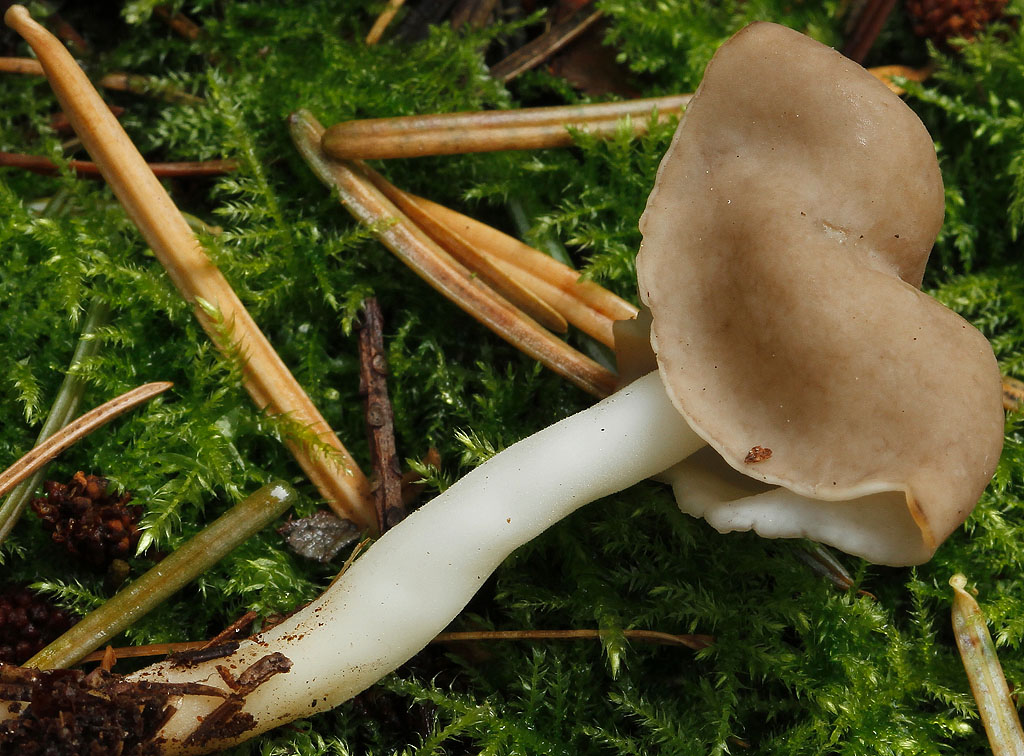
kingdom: Fungi
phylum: Ascomycota
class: Pezizomycetes
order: Pezizales
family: Helvellaceae
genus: Helvella
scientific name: Helvella elastica
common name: elastik-foldhat
